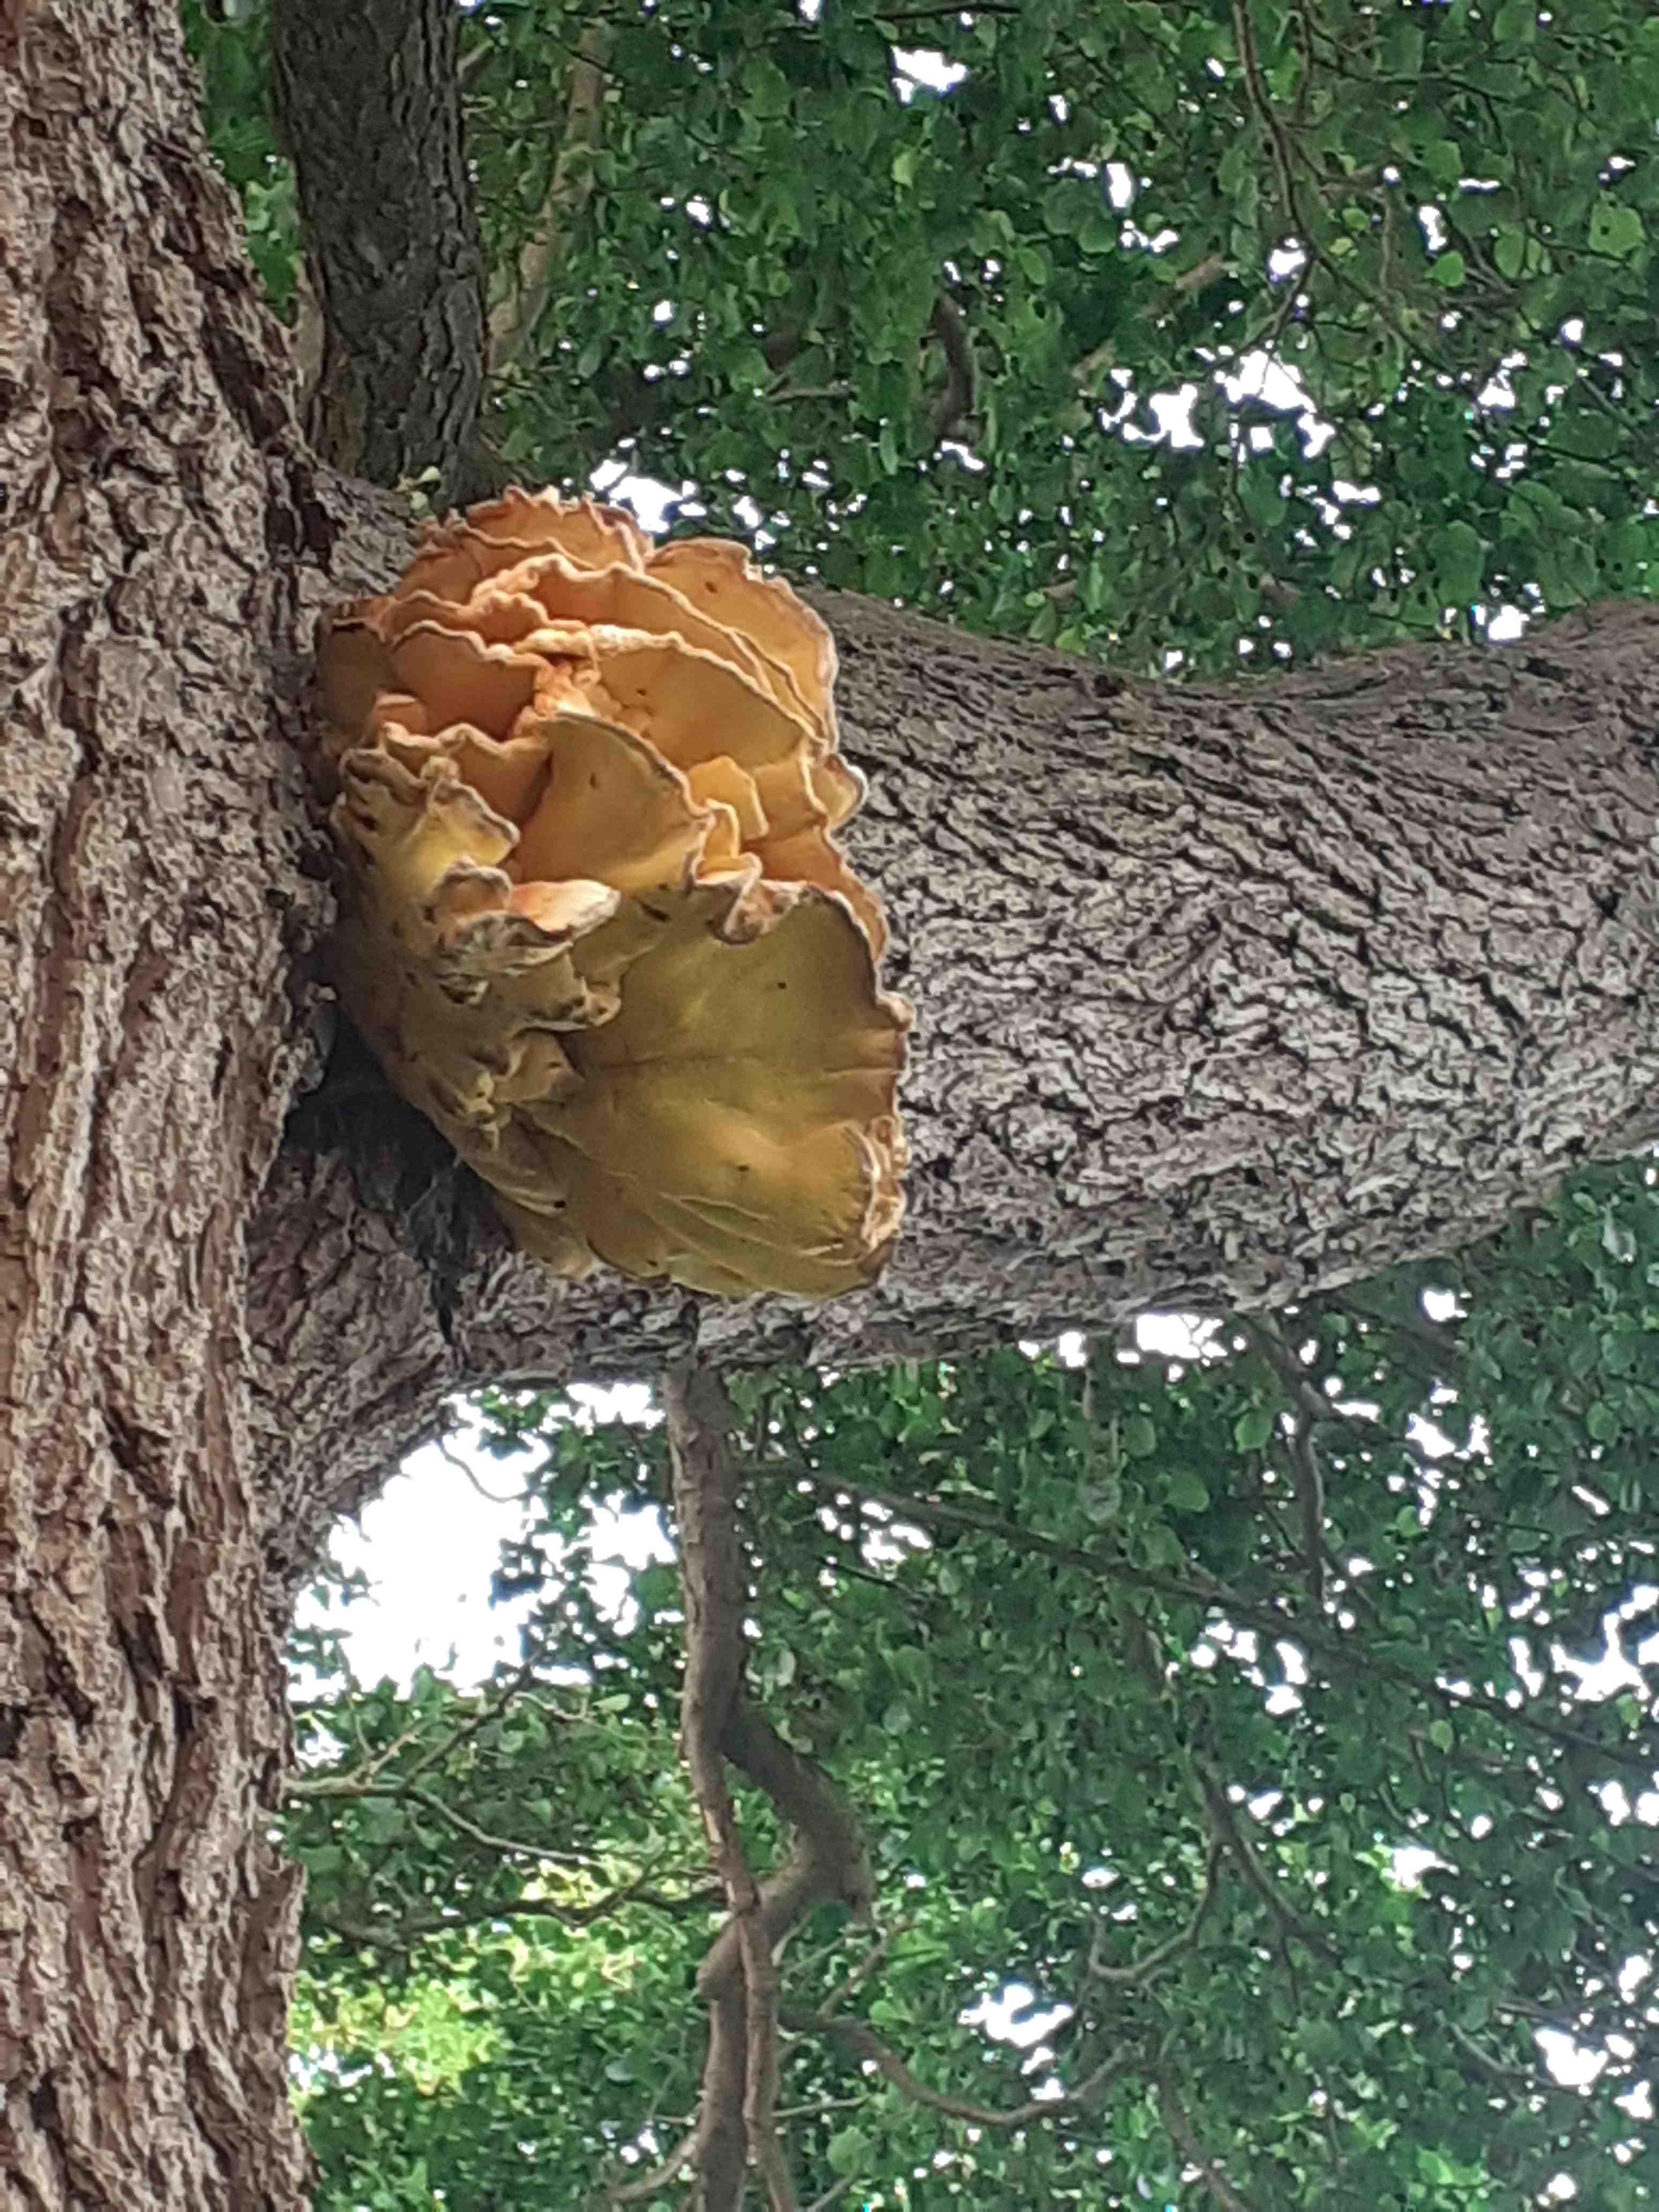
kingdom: Fungi
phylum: Basidiomycota
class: Agaricomycetes
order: Polyporales
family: Laetiporaceae
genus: Laetiporus
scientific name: Laetiporus sulphureus
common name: svovlporesvamp
